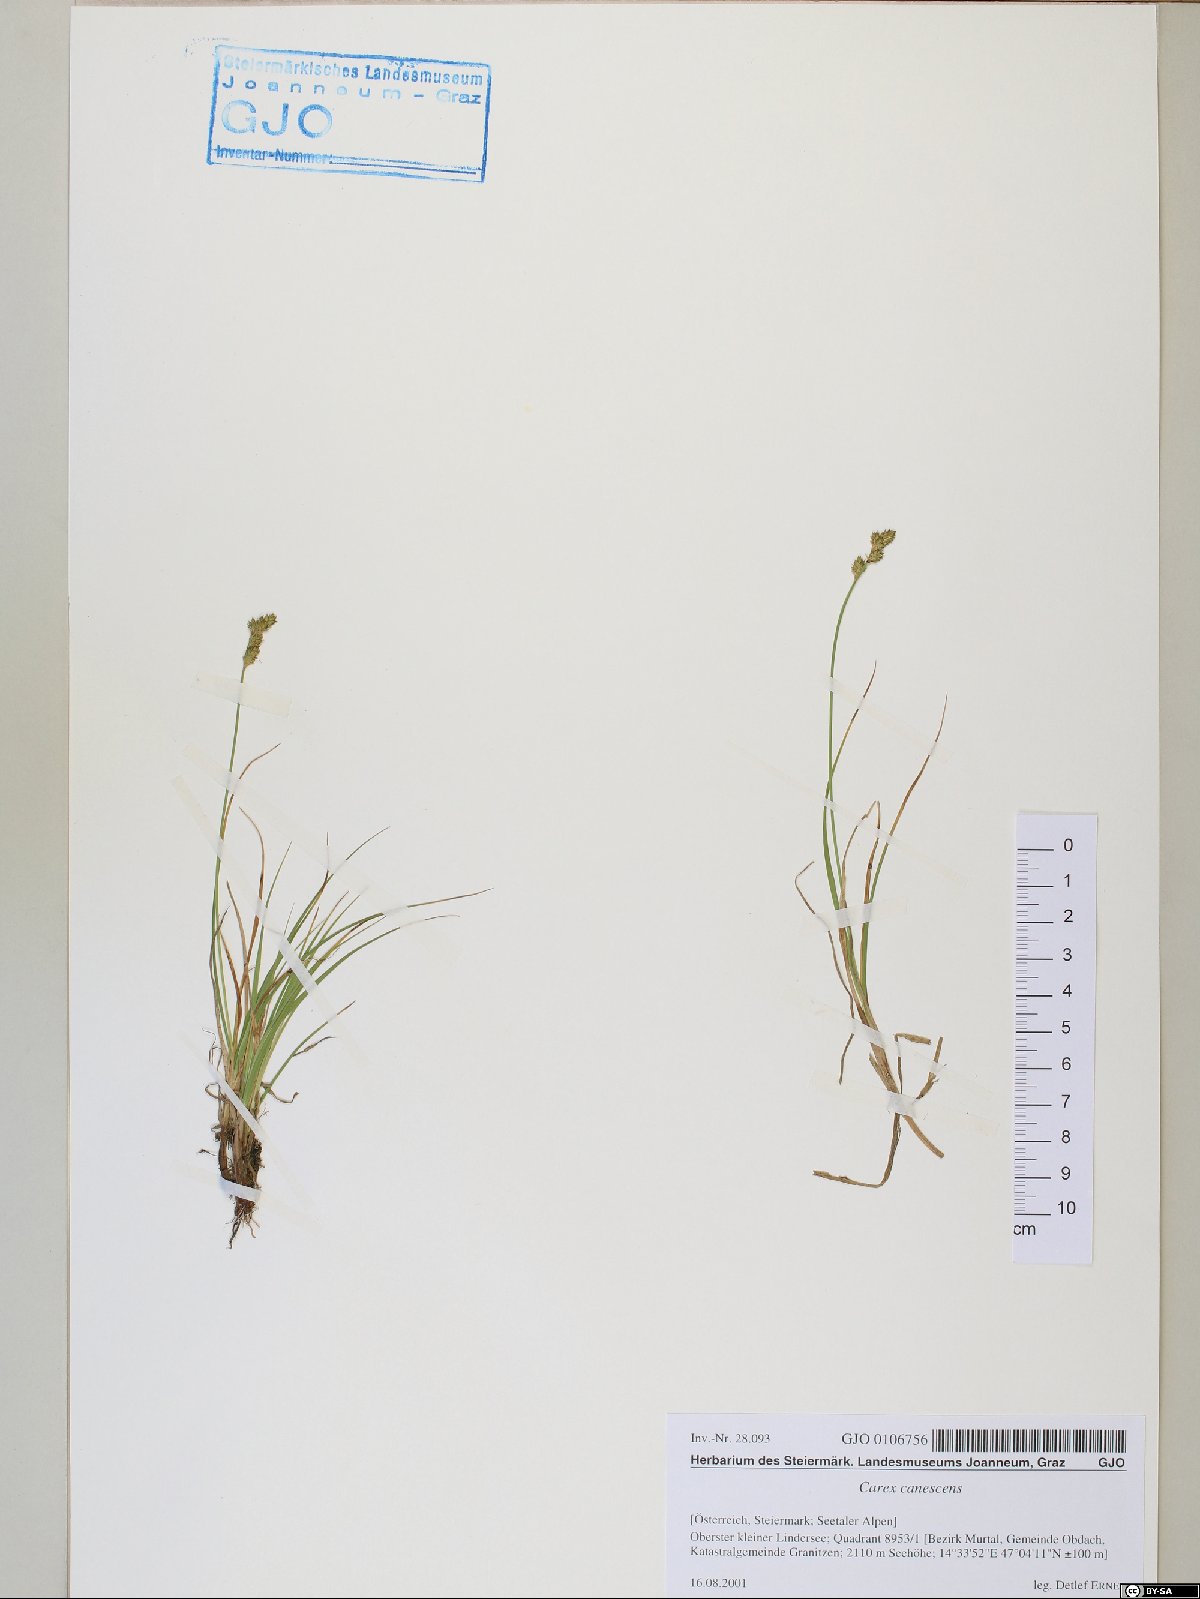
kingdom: Plantae
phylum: Tracheophyta
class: Liliopsida
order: Poales
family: Cyperaceae
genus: Carex
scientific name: Carex canescens
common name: White sedge
